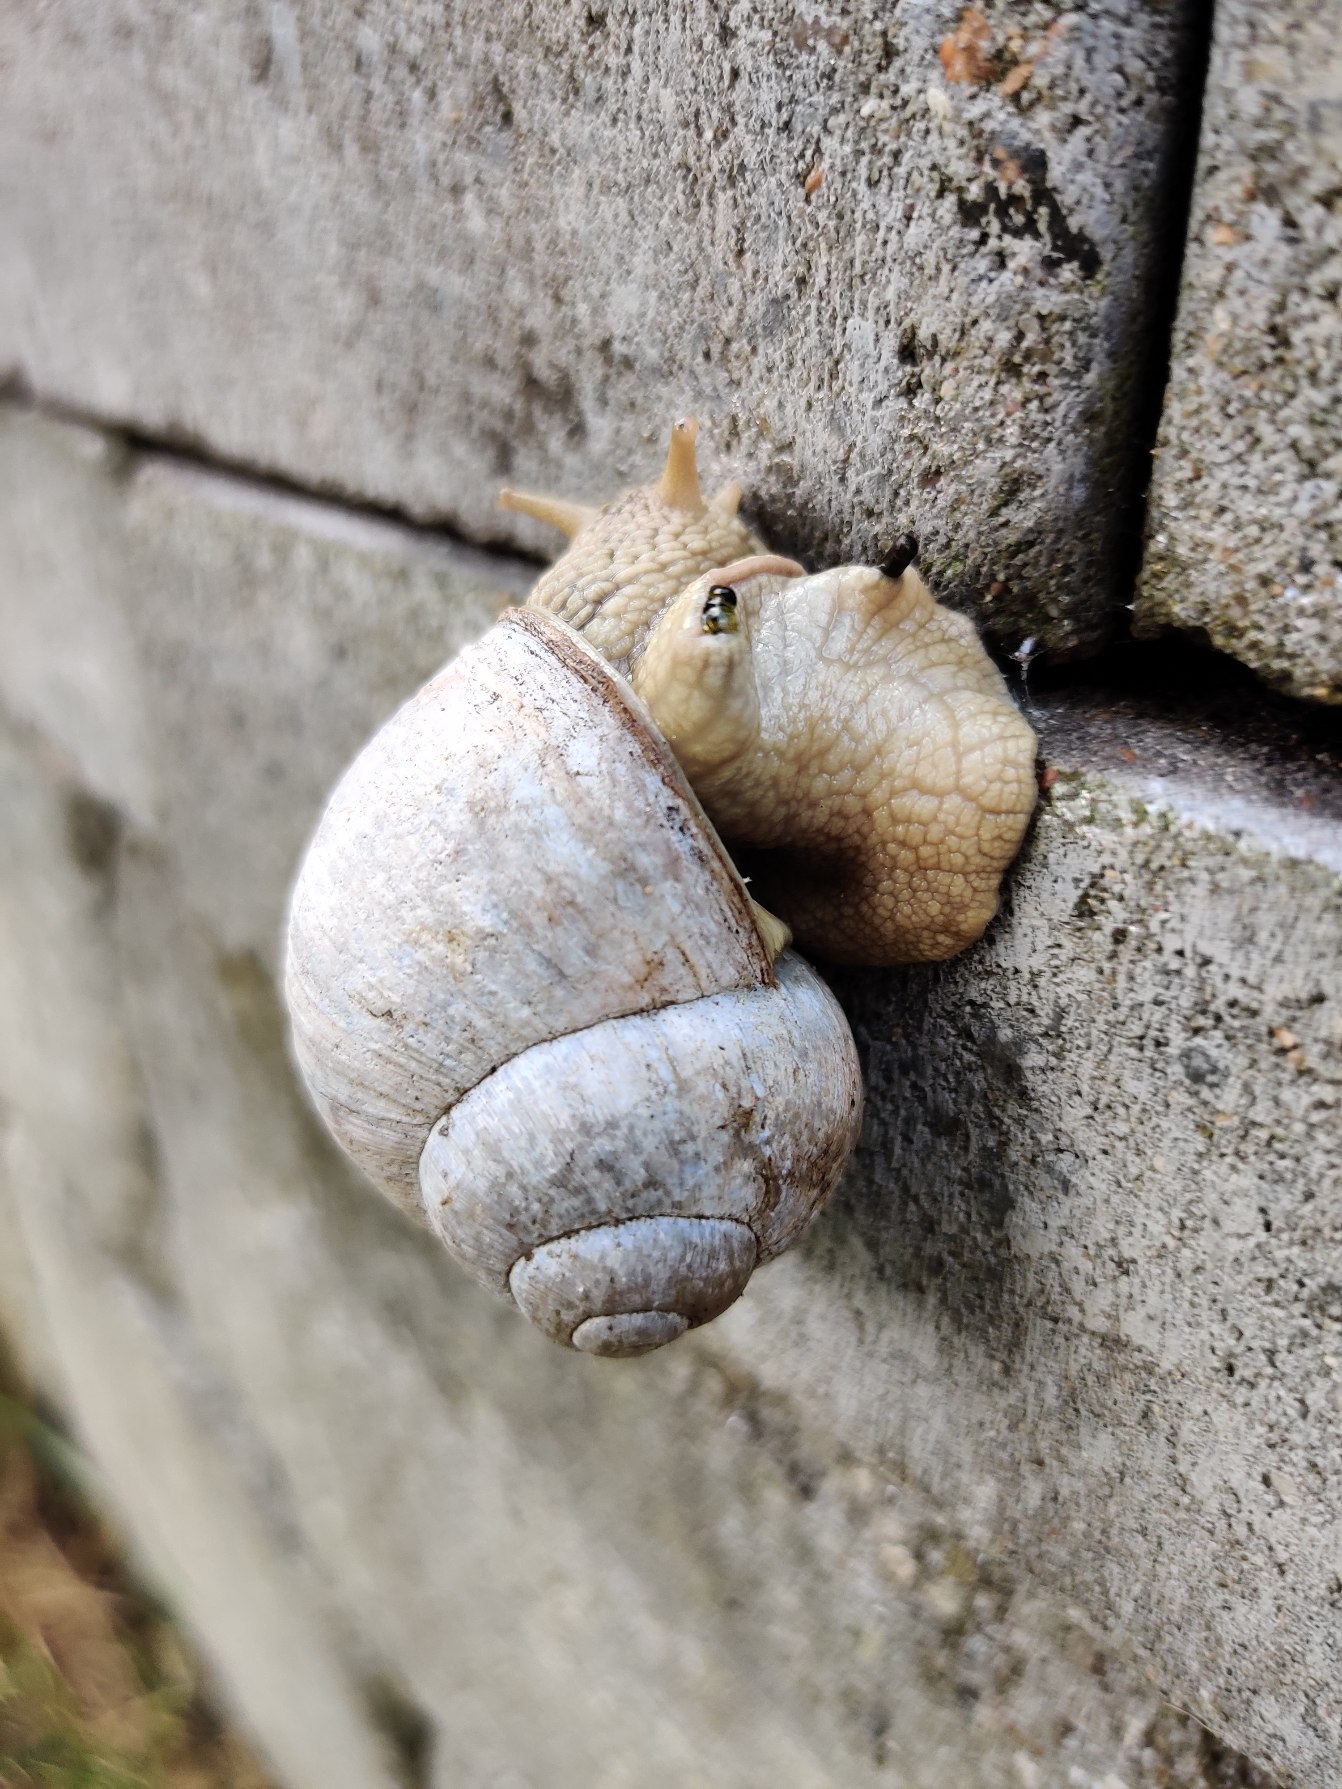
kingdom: Animalia
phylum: Mollusca
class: Gastropoda
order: Stylommatophora
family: Helicidae
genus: Helix
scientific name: Helix pomatia
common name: Vinbjergsnegl
